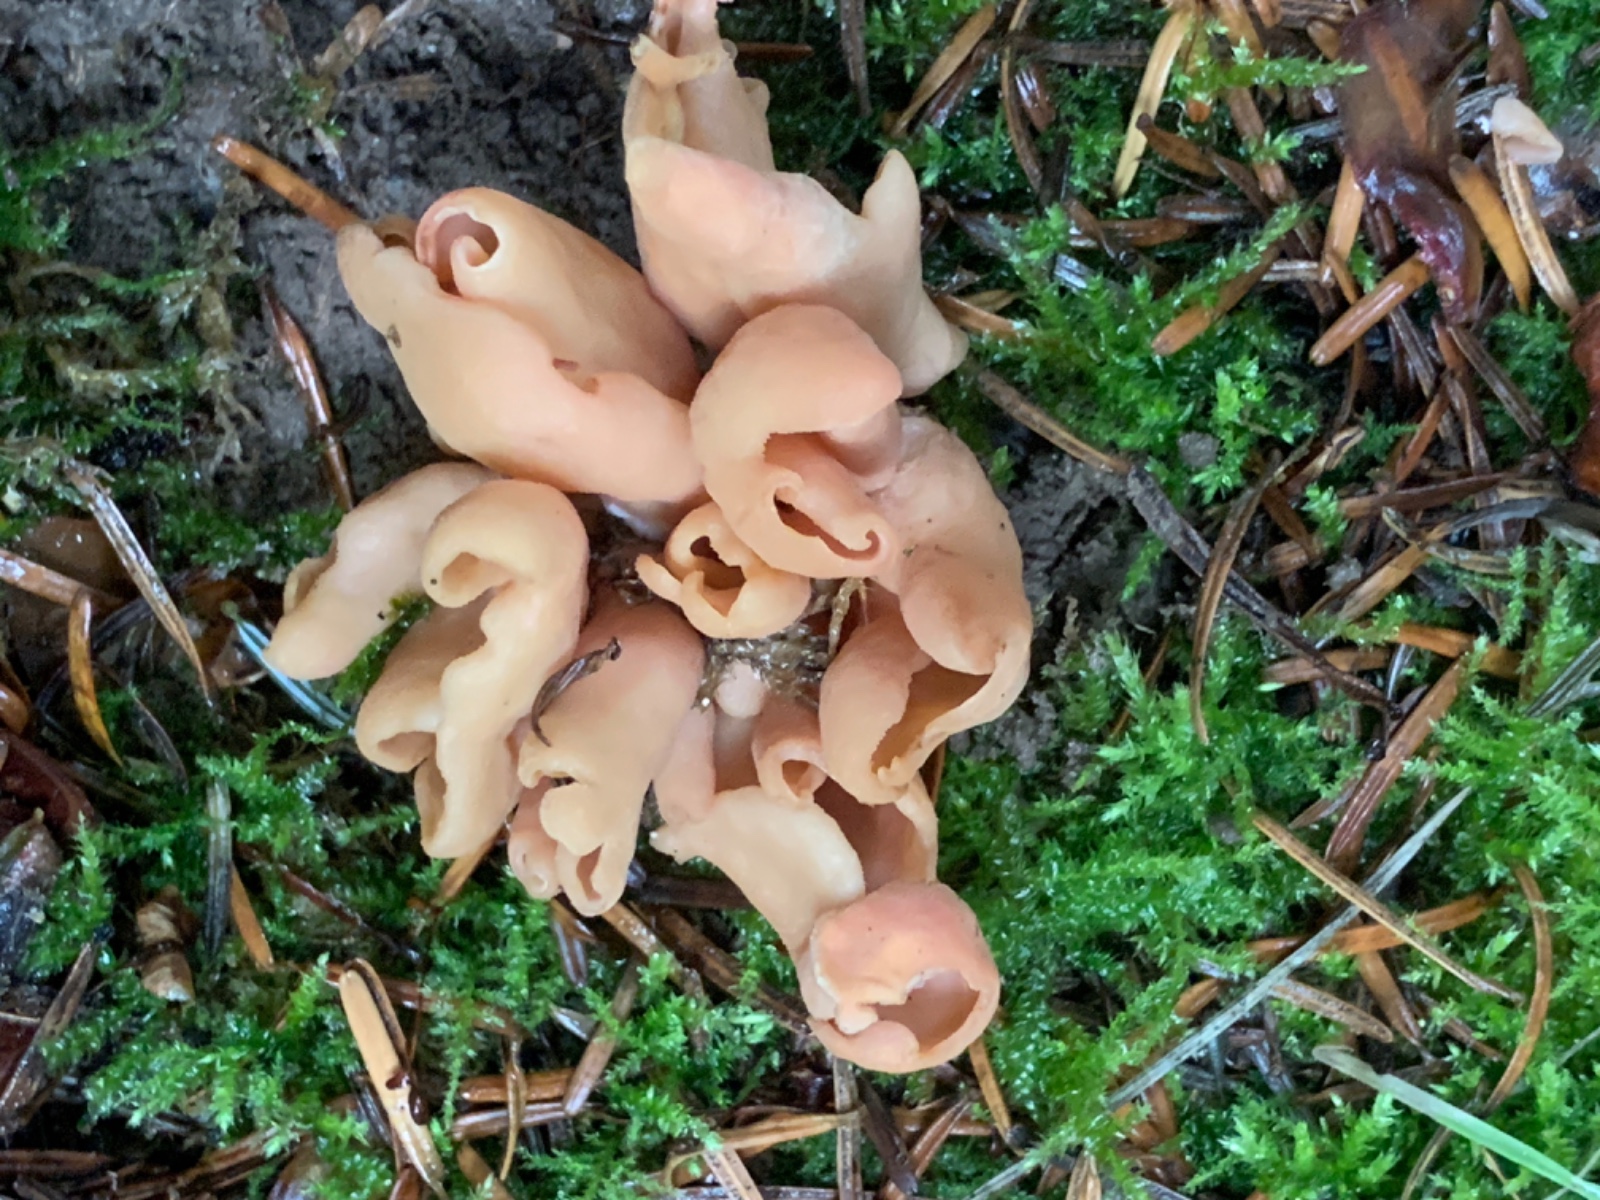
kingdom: Fungi
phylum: Ascomycota
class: Pezizomycetes
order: Pezizales
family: Otideaceae
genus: Otidea
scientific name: Otidea onotica
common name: æsel-ørebæger
